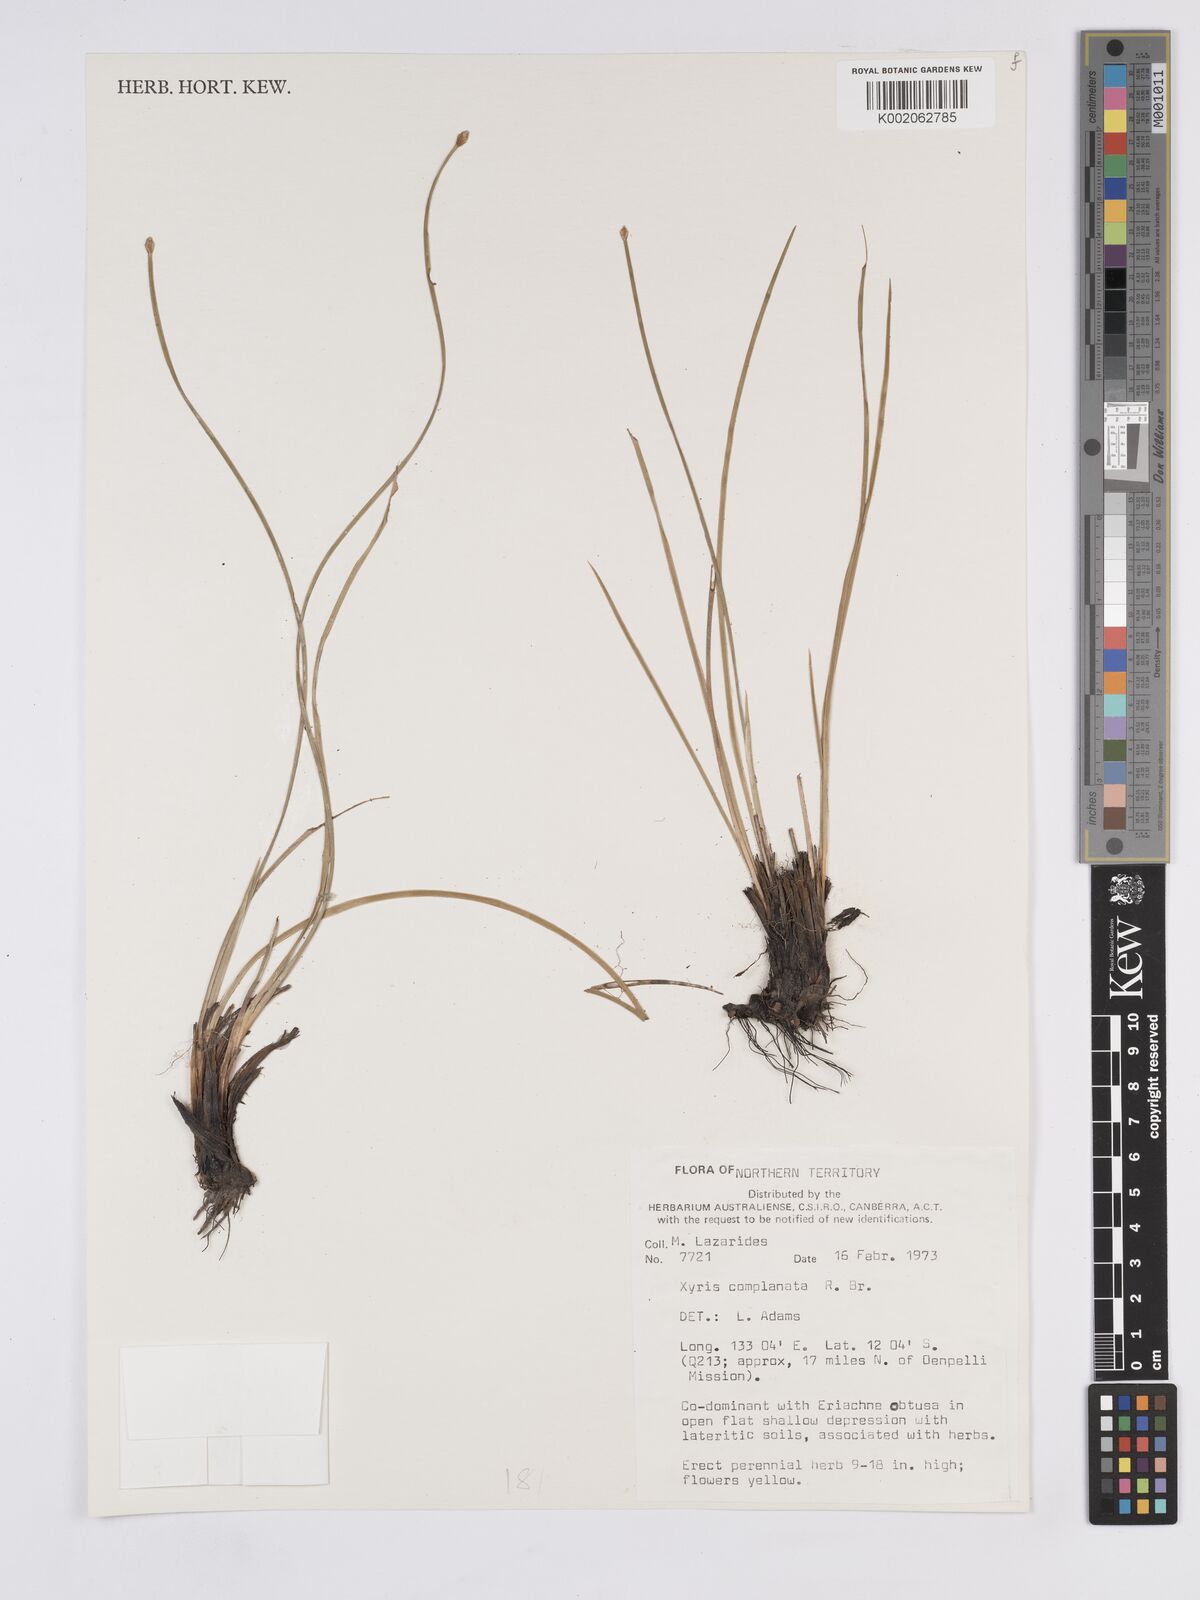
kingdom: Plantae
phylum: Tracheophyta
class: Liliopsida
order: Poales
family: Xyridaceae
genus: Xyris
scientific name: Xyris complanata
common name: Hawai'i yelloweyed grass
